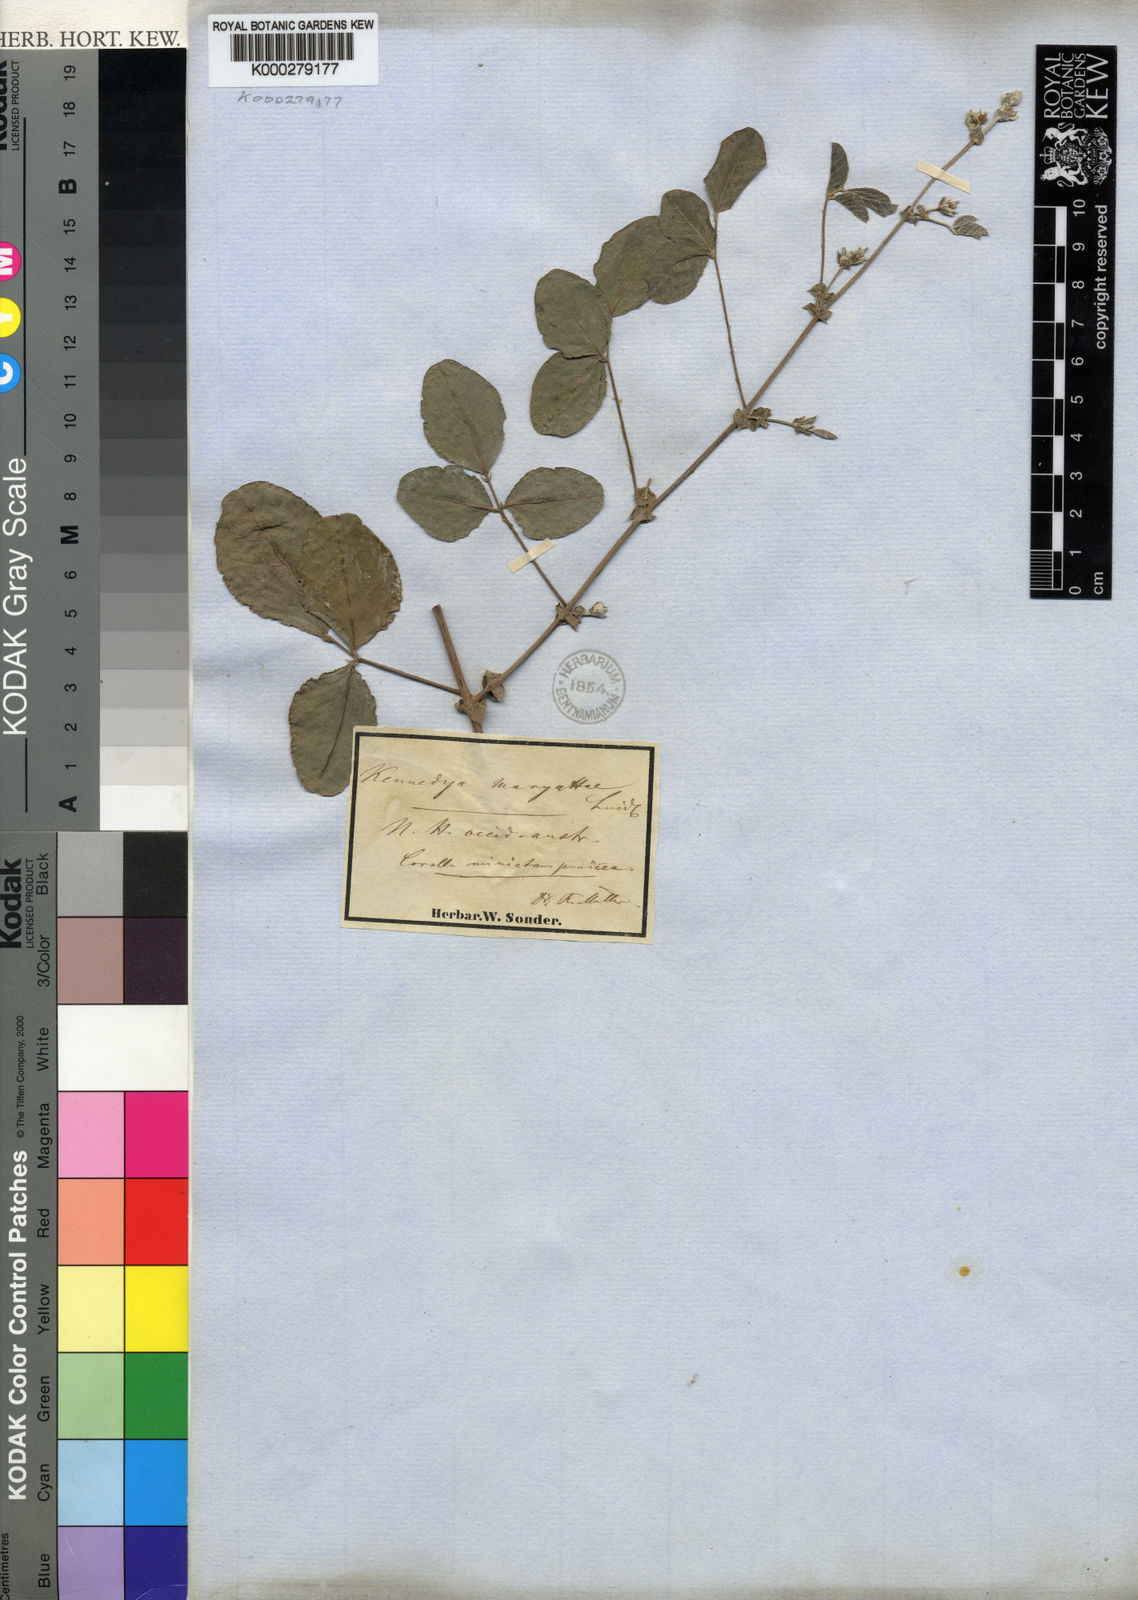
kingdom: Plantae
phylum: Tracheophyta
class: Magnoliopsida
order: Fabales
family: Fabaceae
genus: Kennedia
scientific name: Kennedia lateritia
